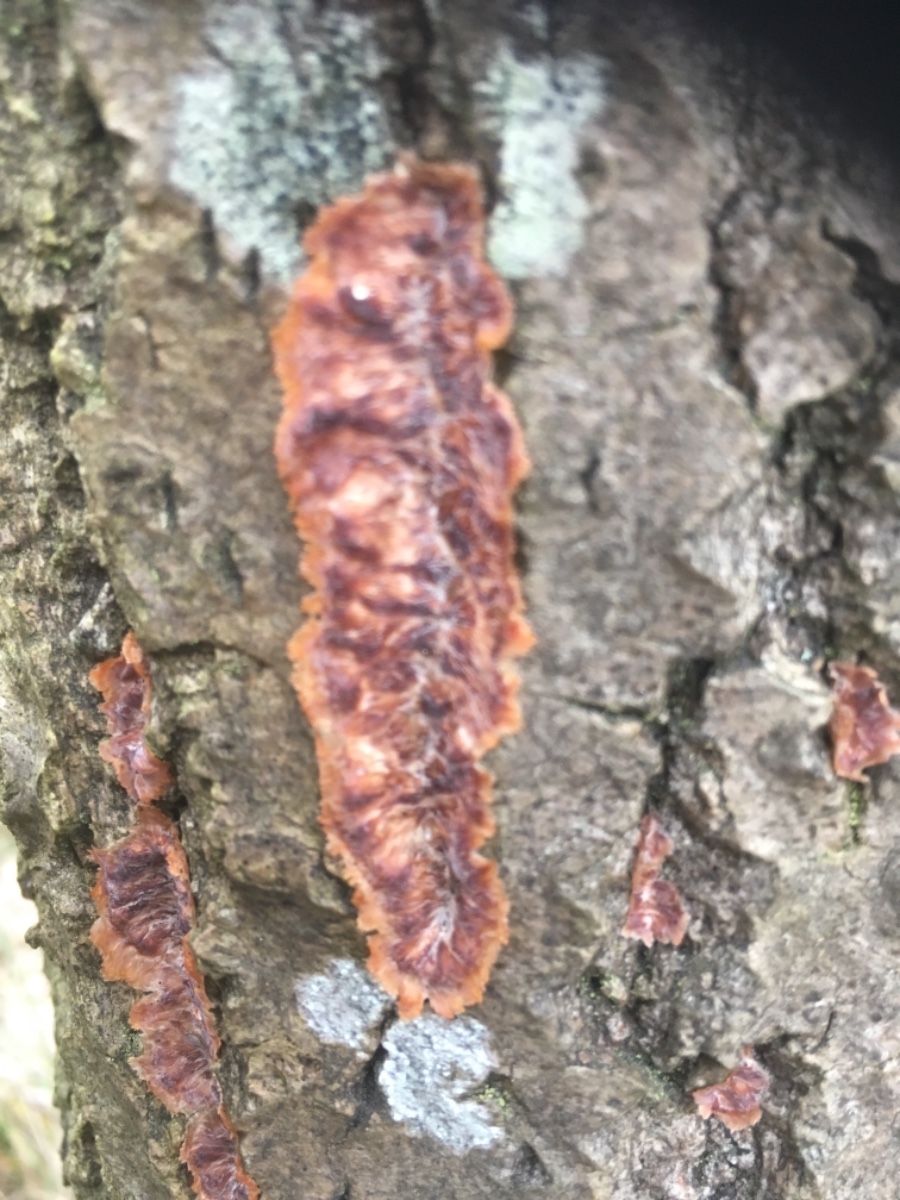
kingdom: Fungi
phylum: Basidiomycota
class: Agaricomycetes
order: Polyporales
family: Meruliaceae
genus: Phlebia
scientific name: Phlebia radiata
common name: stråle-åresvamp
